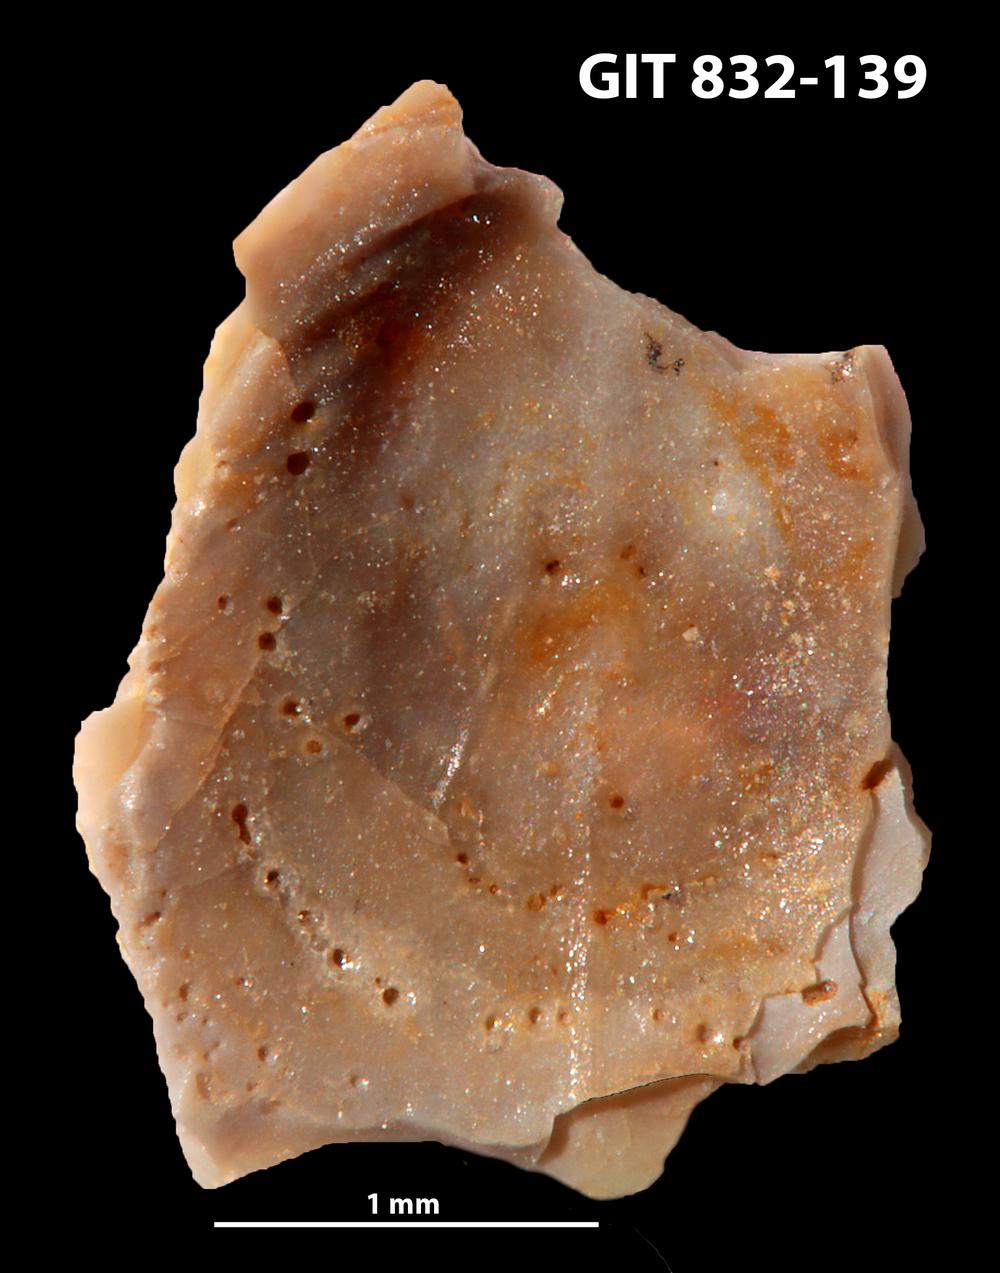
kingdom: Animalia
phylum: Brachiopoda
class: Lingulata
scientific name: Lingulata
